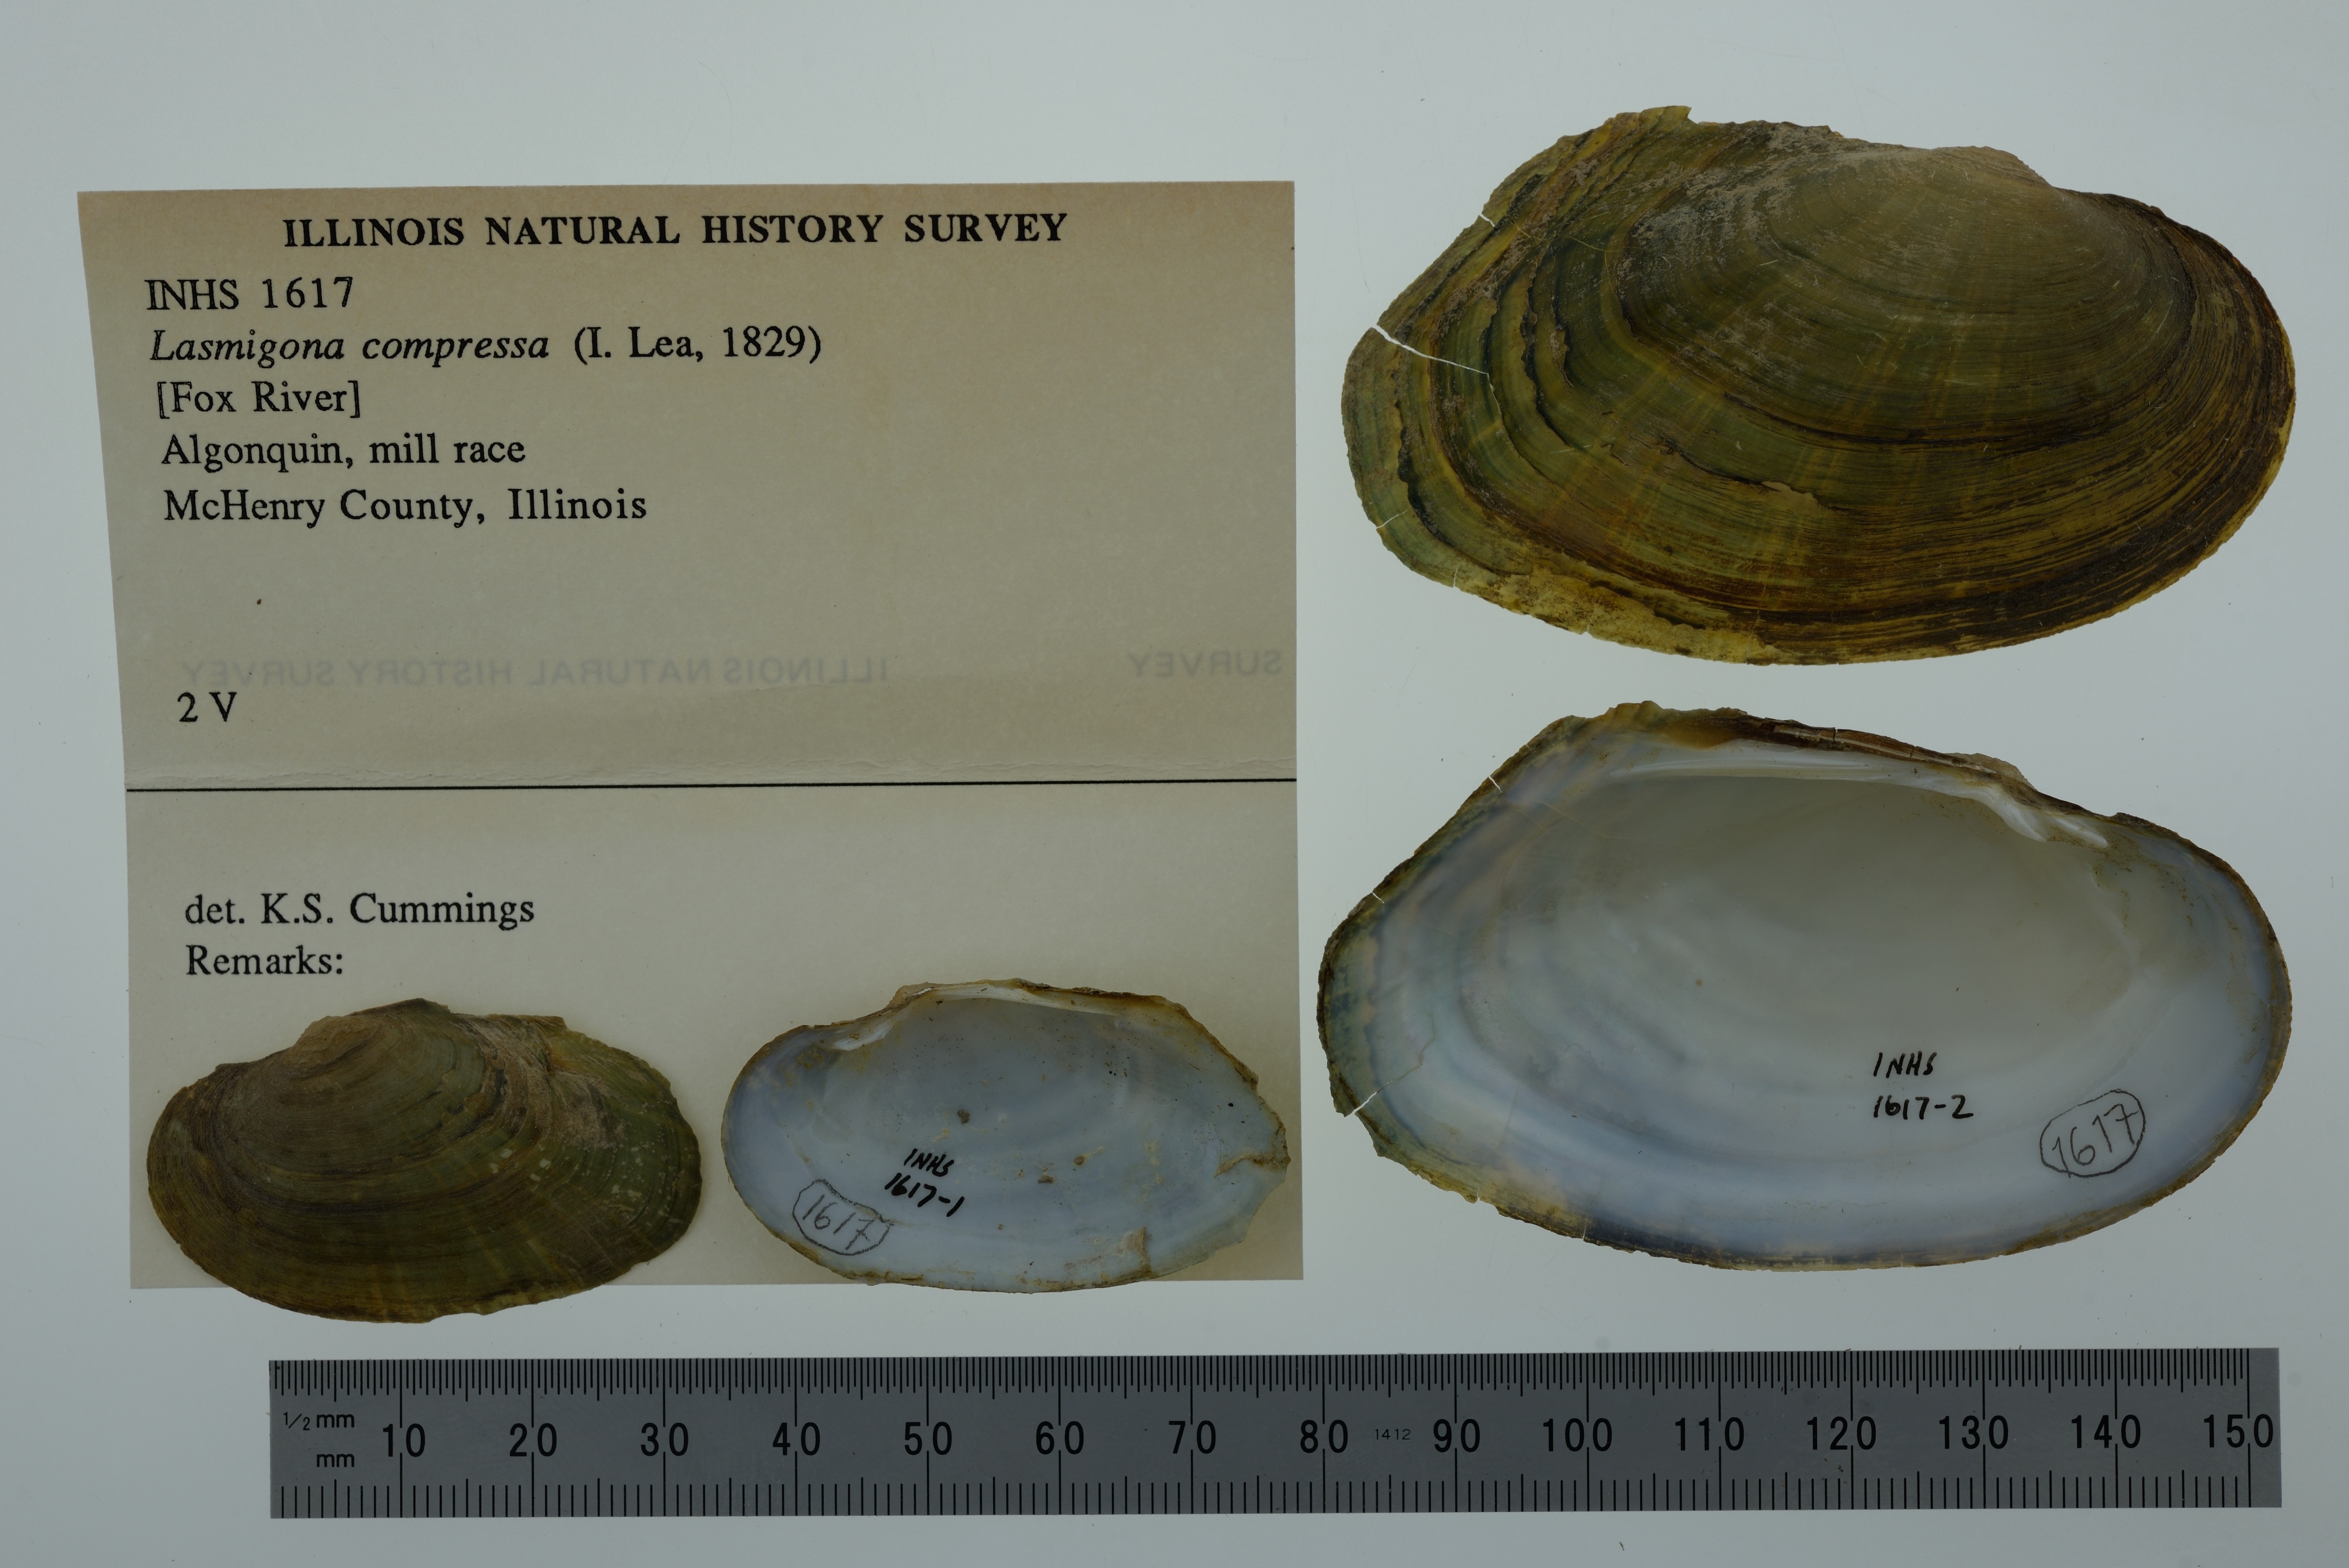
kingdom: Animalia
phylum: Mollusca
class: Bivalvia
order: Unionida
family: Unionidae
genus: Lasmigona
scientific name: Lasmigona compressa
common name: Creek heelsplitter
